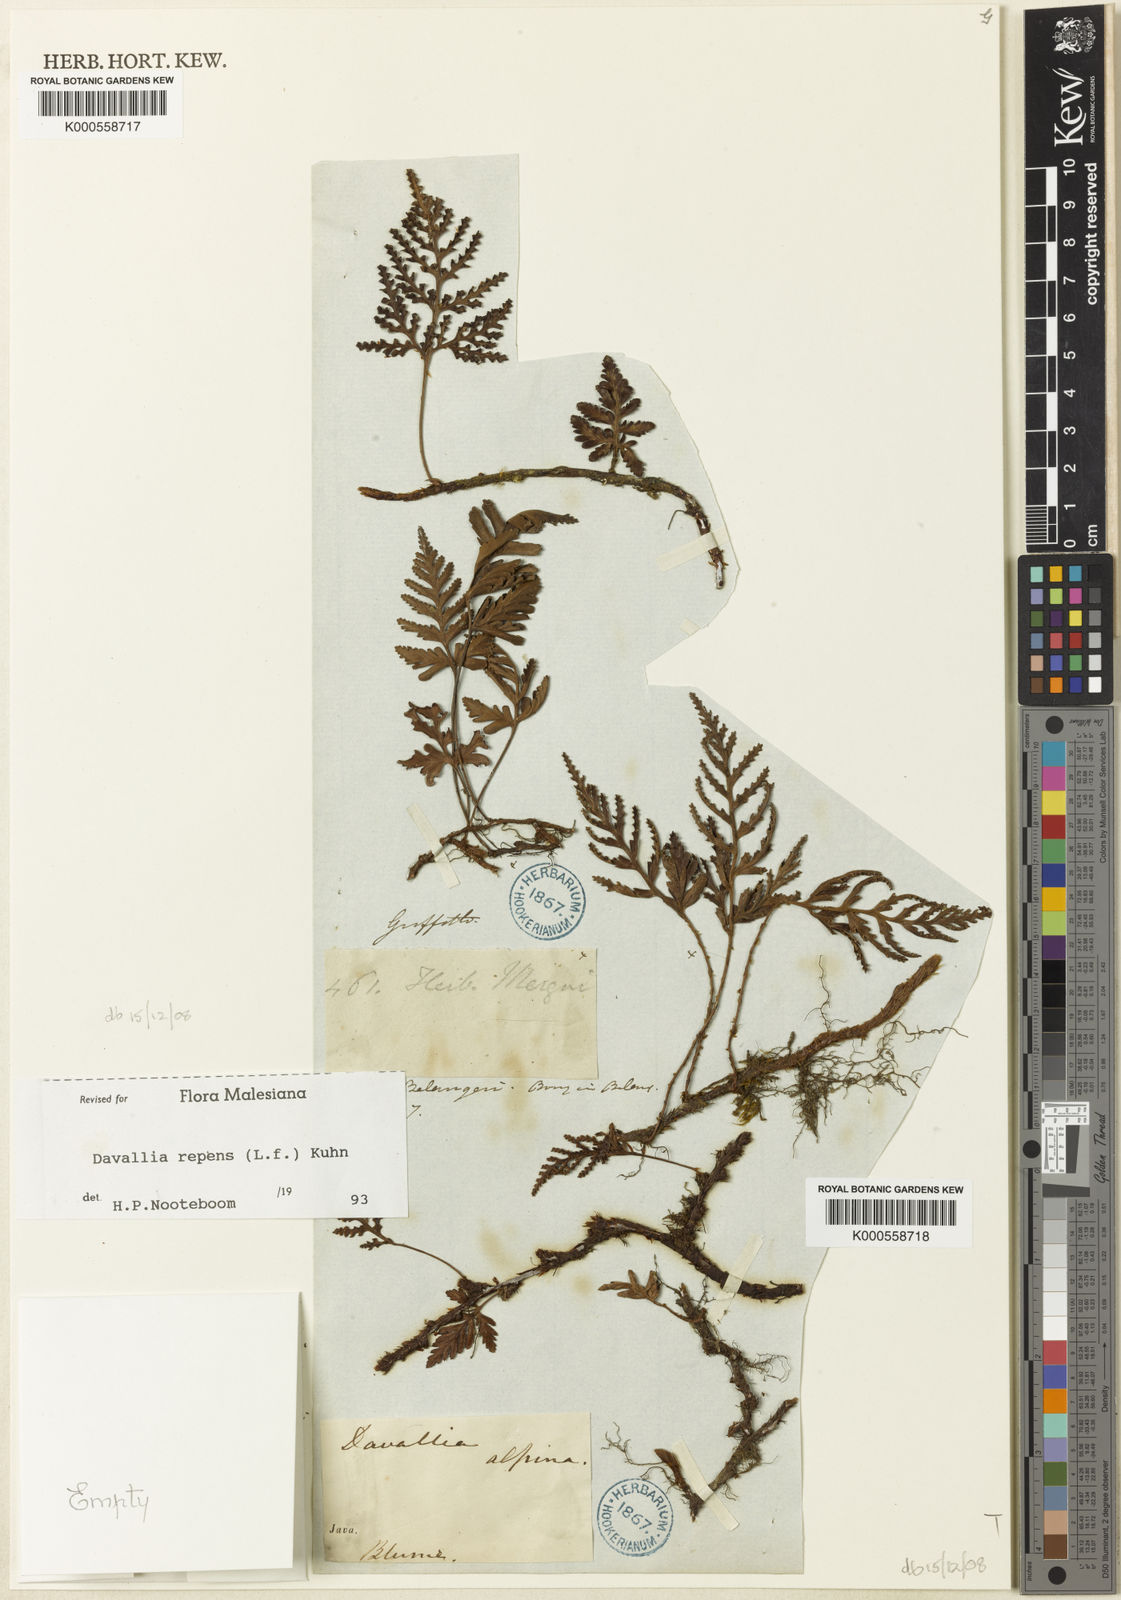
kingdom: Plantae
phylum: Tracheophyta
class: Polypodiopsida
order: Polypodiales
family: Davalliaceae
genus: Davallia
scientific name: Davallia repens
